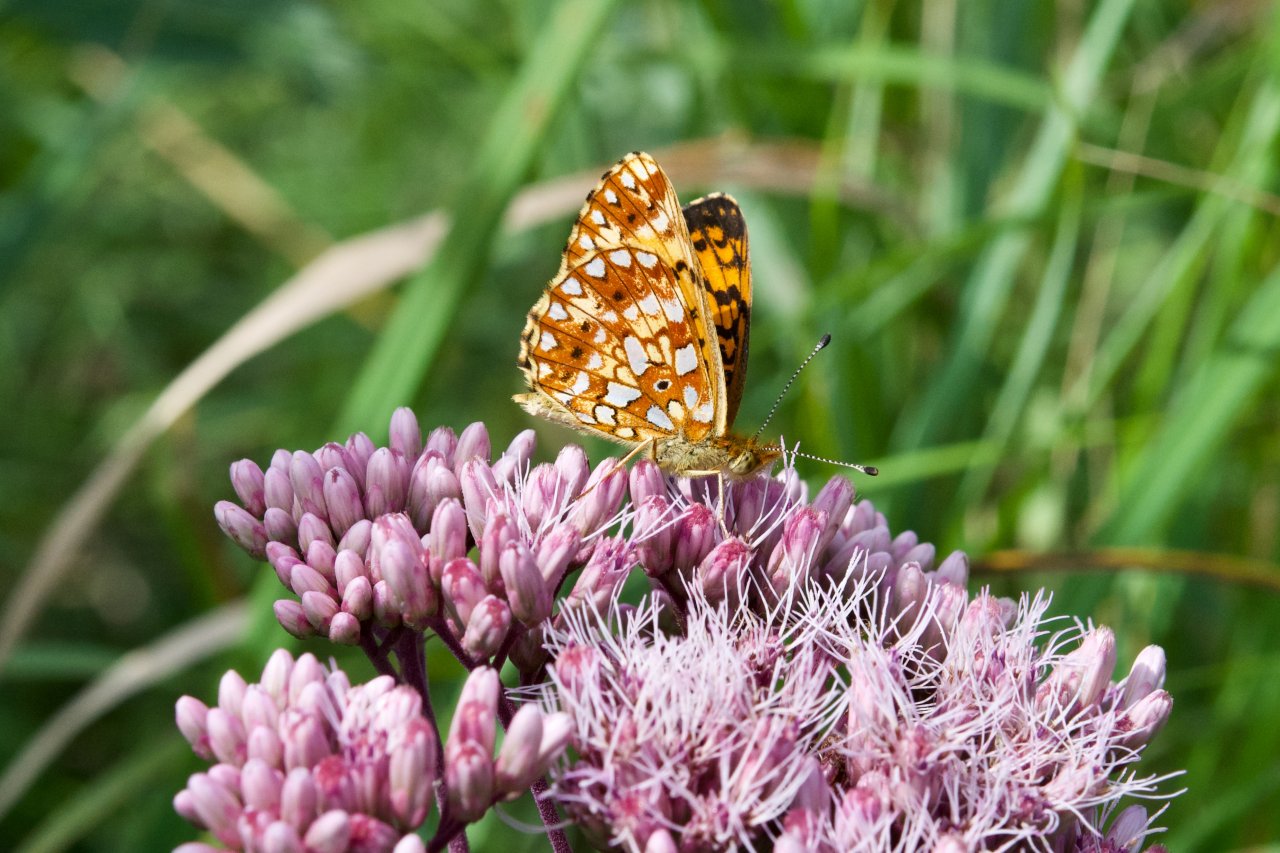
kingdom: Animalia
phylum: Arthropoda
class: Insecta
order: Lepidoptera
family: Nymphalidae
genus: Boloria
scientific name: Boloria selene
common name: Silver-bordered Fritillary
